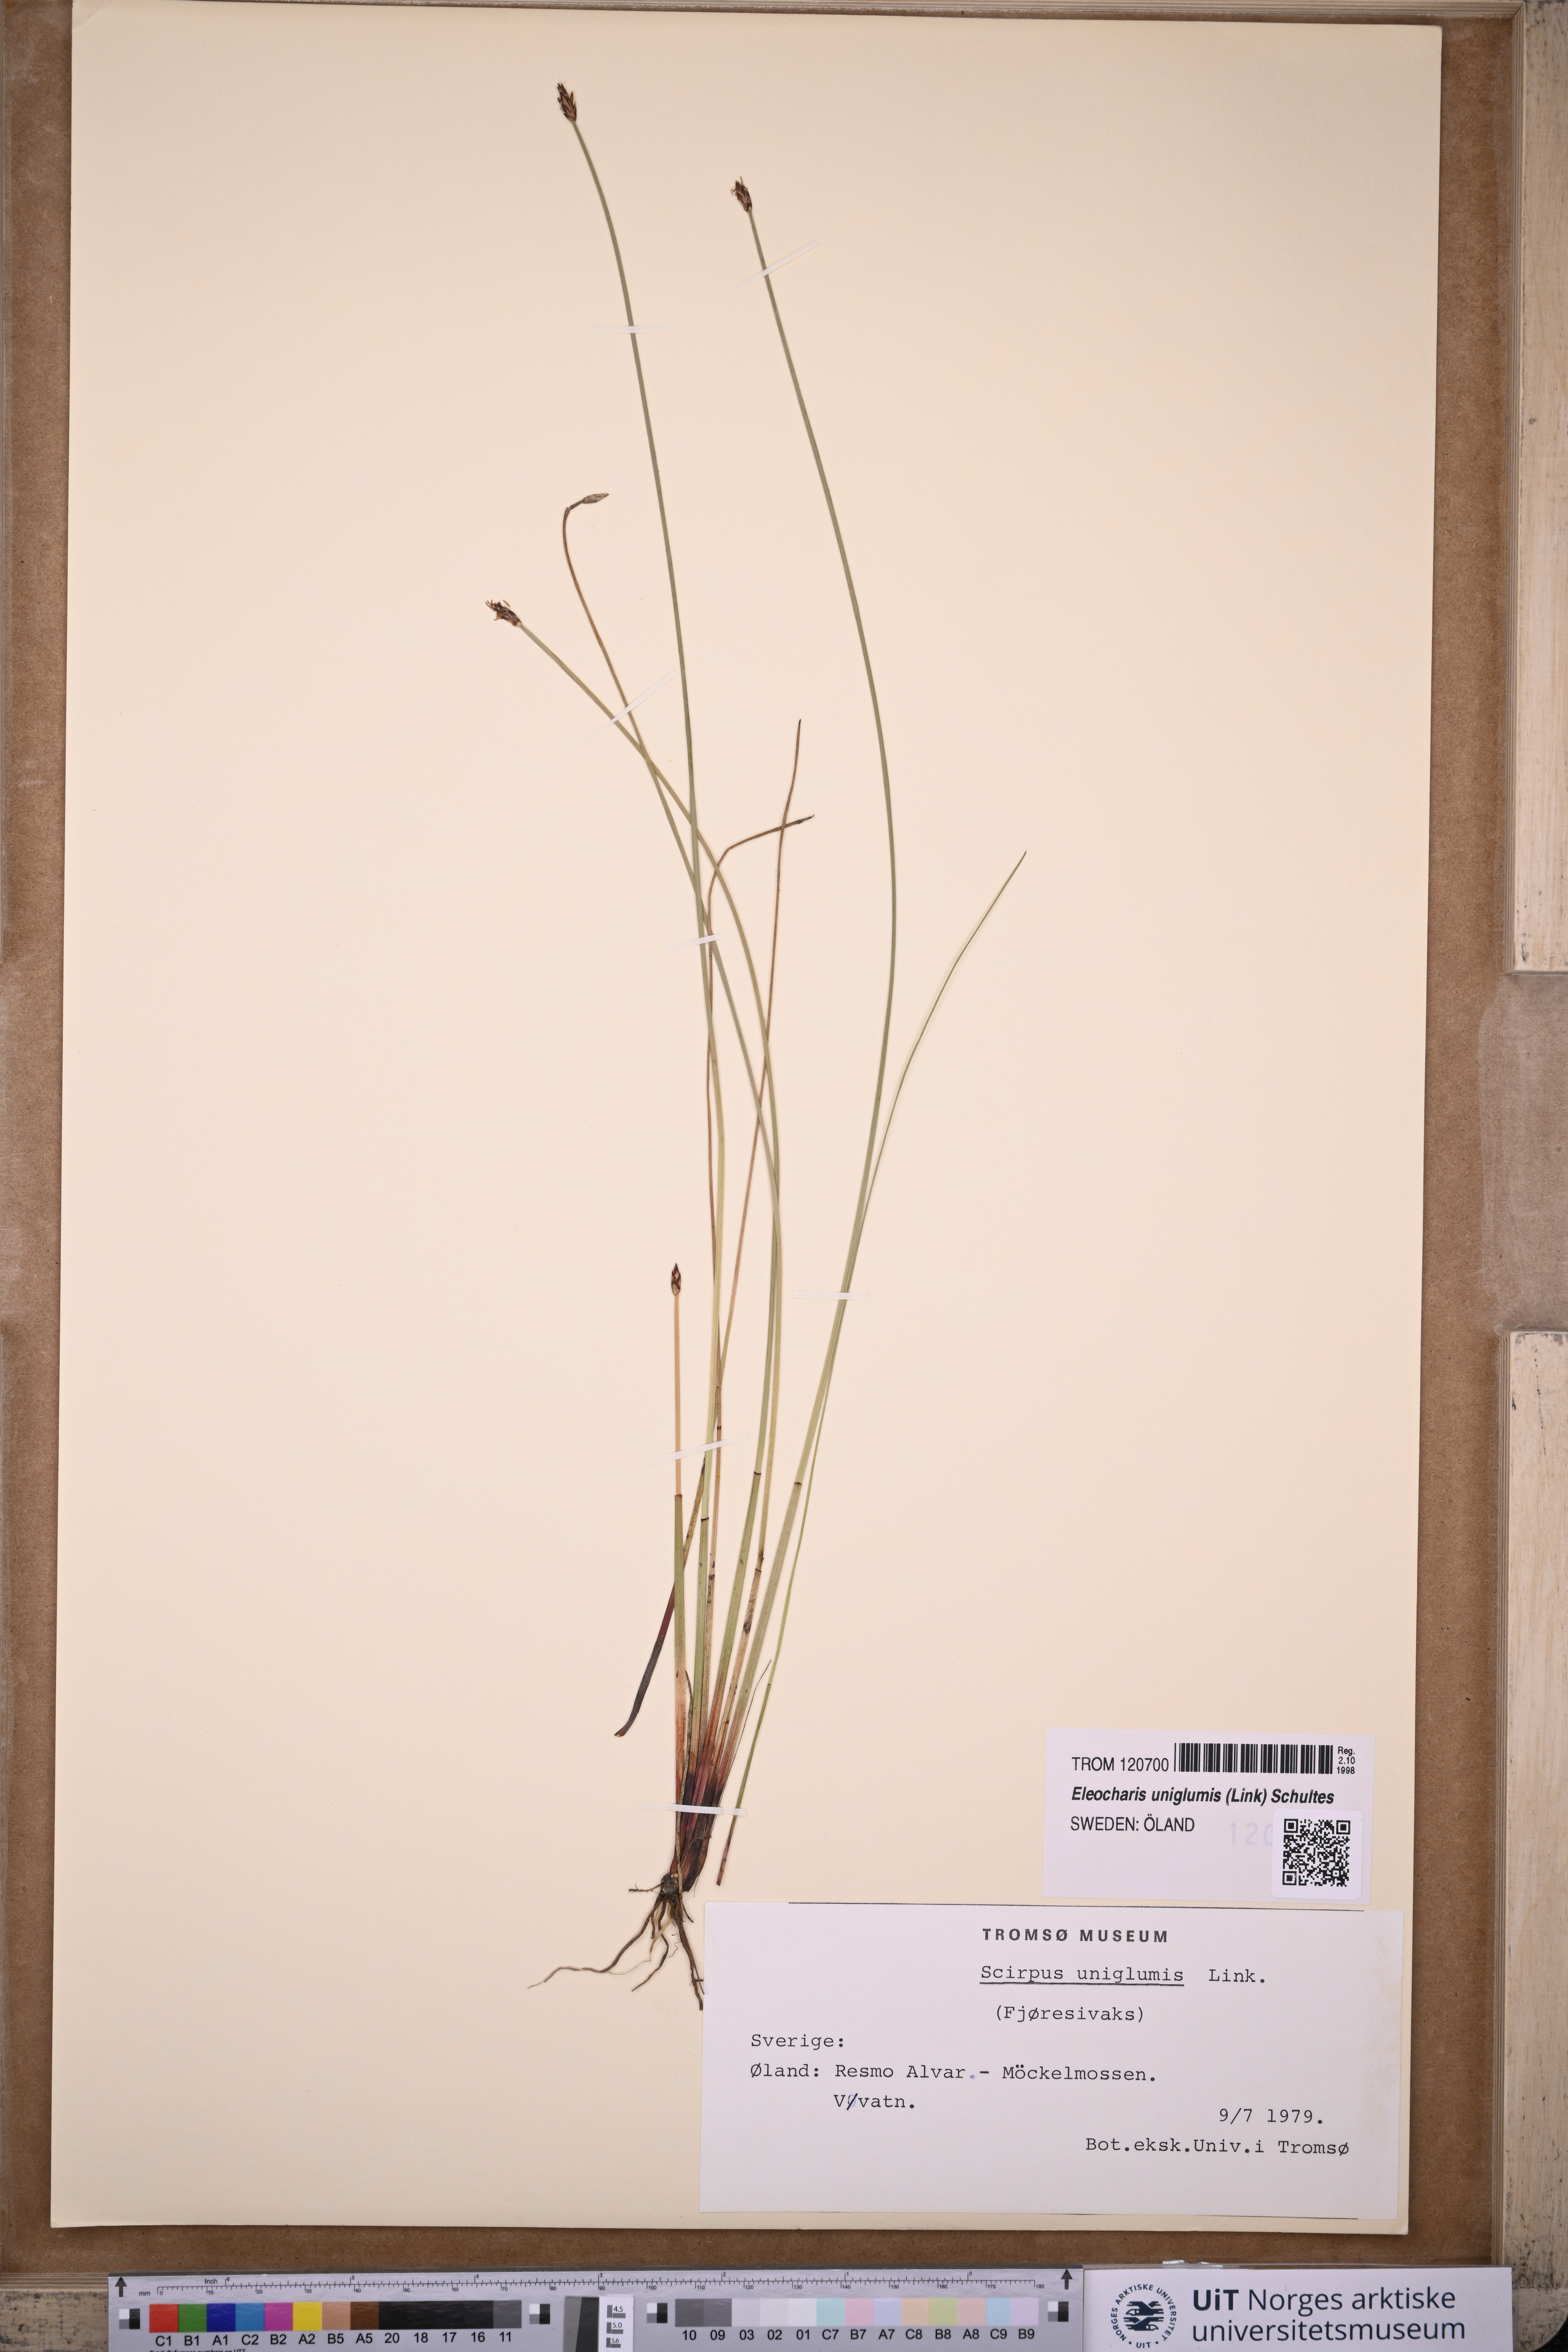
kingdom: Plantae
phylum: Tracheophyta
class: Liliopsida
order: Poales
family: Cyperaceae
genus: Eleocharis
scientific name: Eleocharis uniglumis
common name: Slender spike-rush
